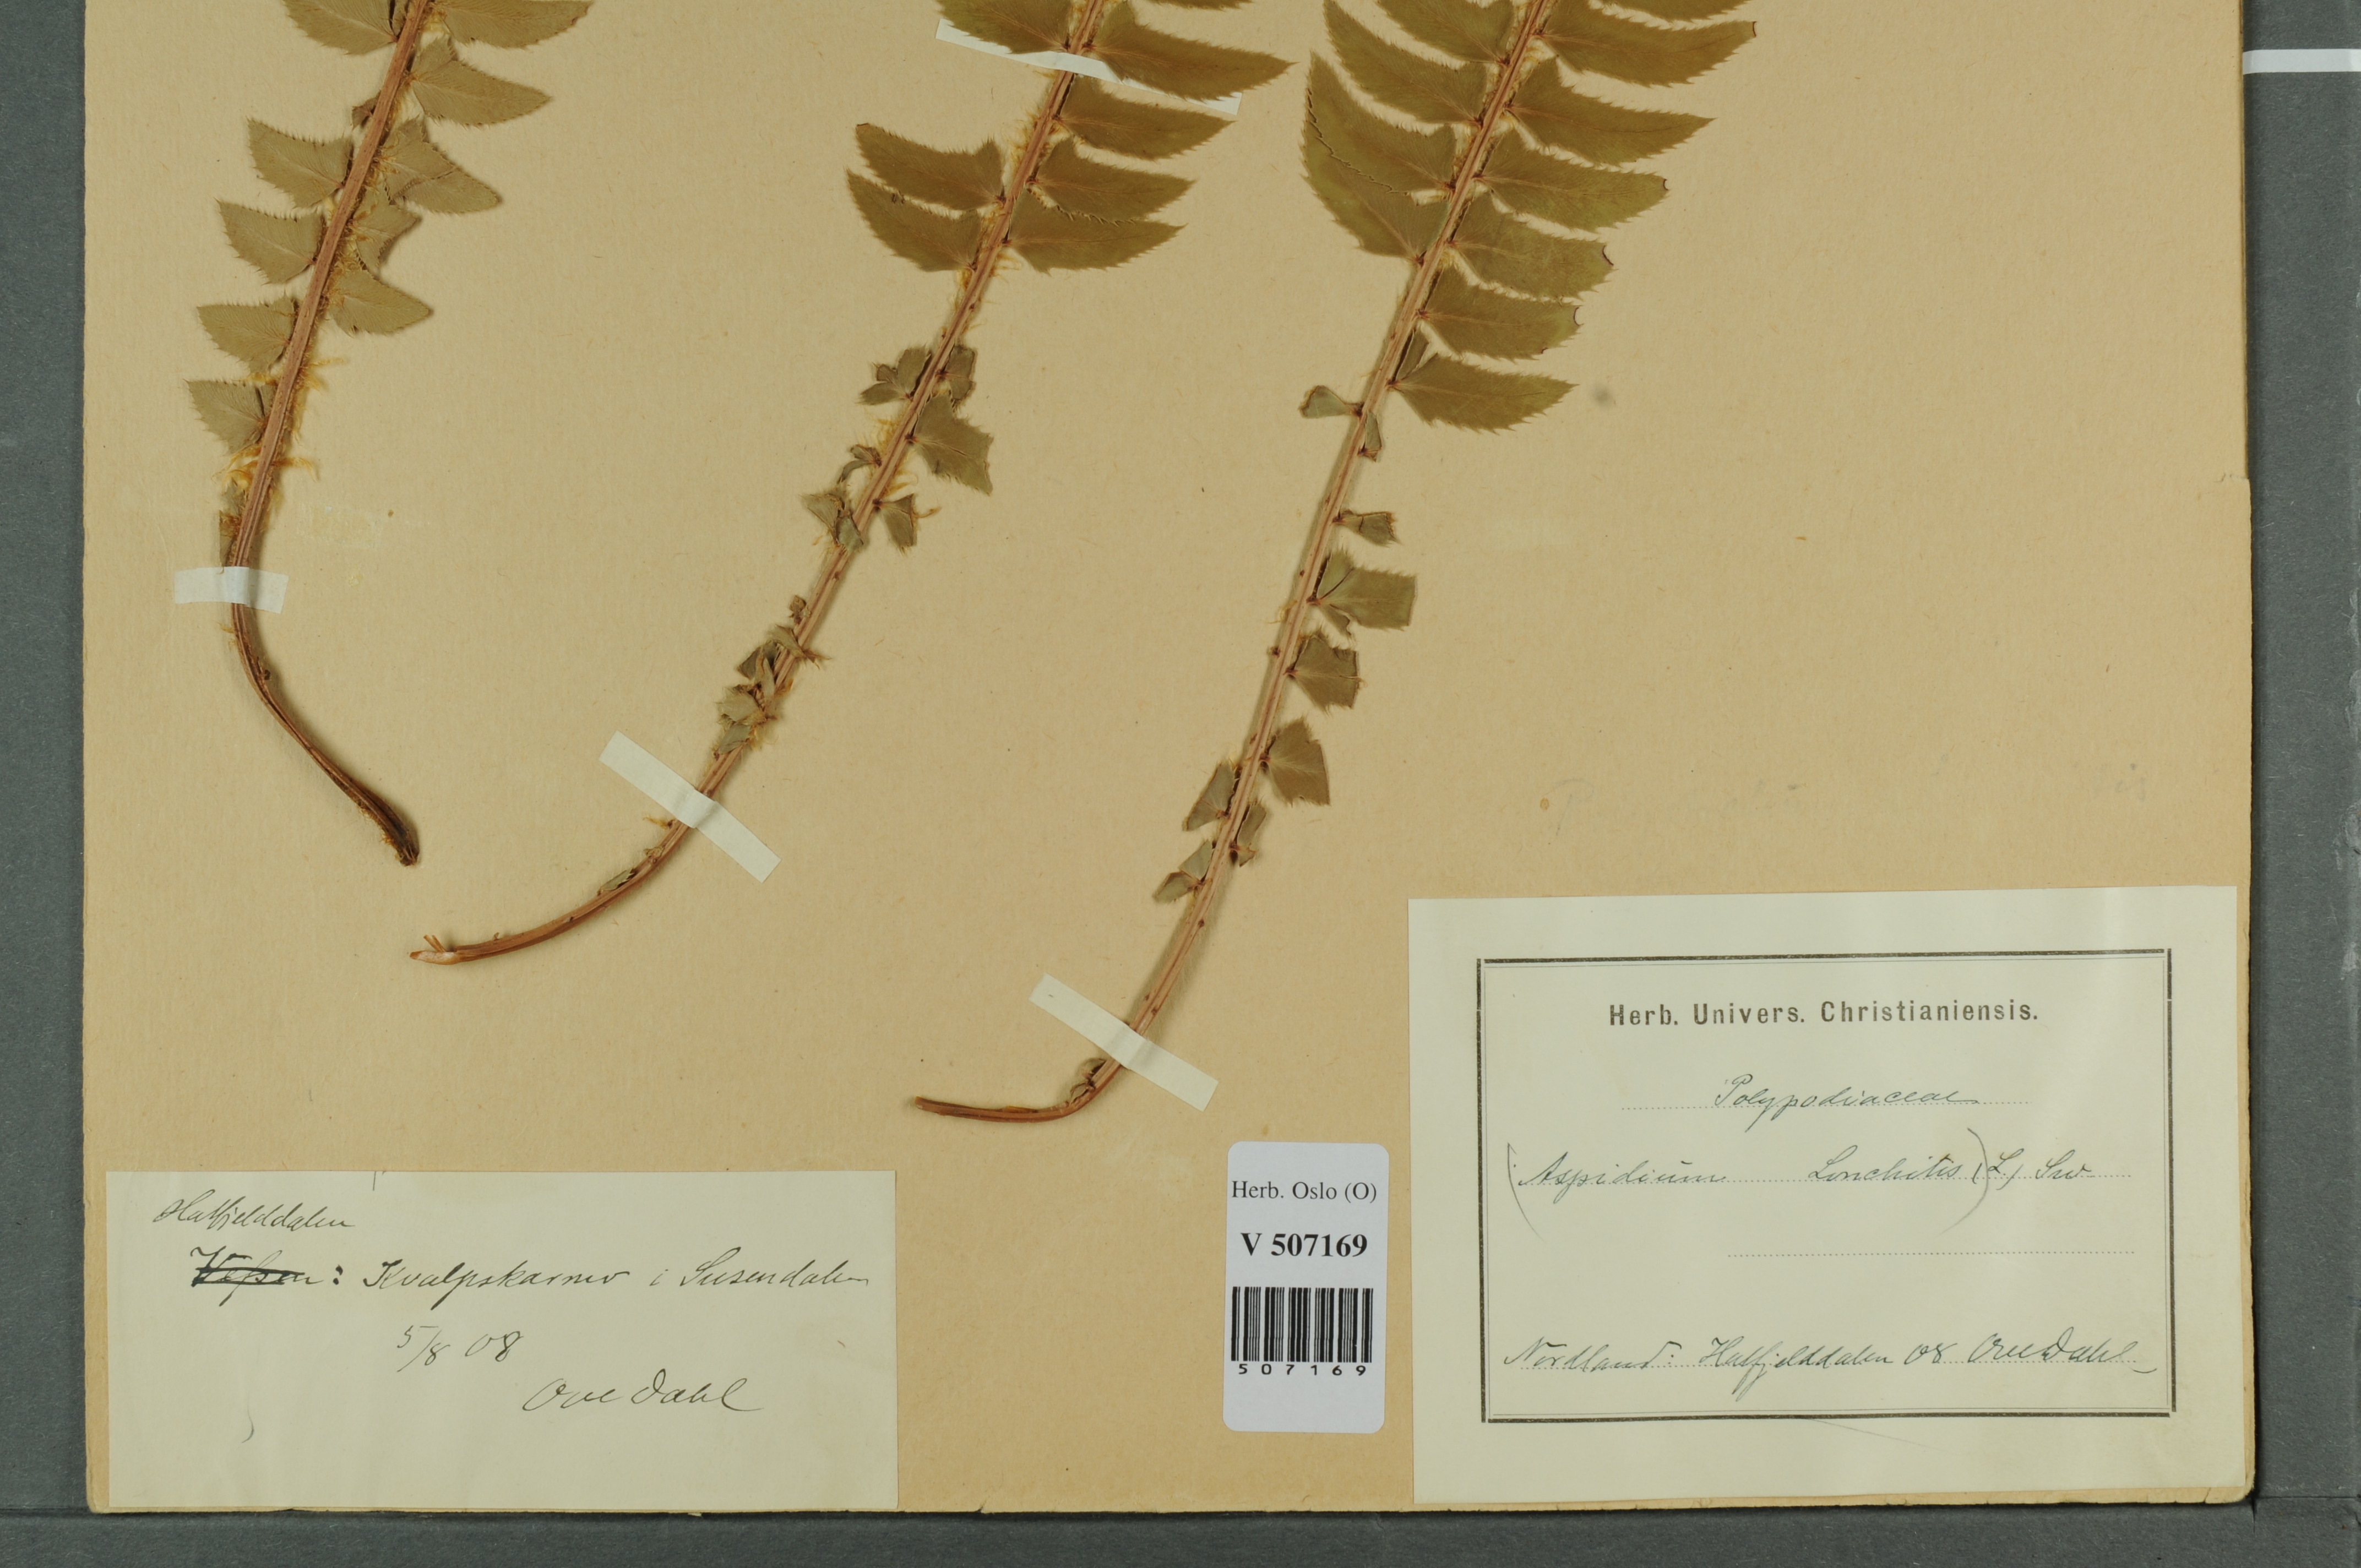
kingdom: Plantae
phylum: Tracheophyta
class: Polypodiopsida
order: Polypodiales
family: Dryopteridaceae
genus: Polystichum
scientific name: Polystichum lonchitis
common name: Holly fern
